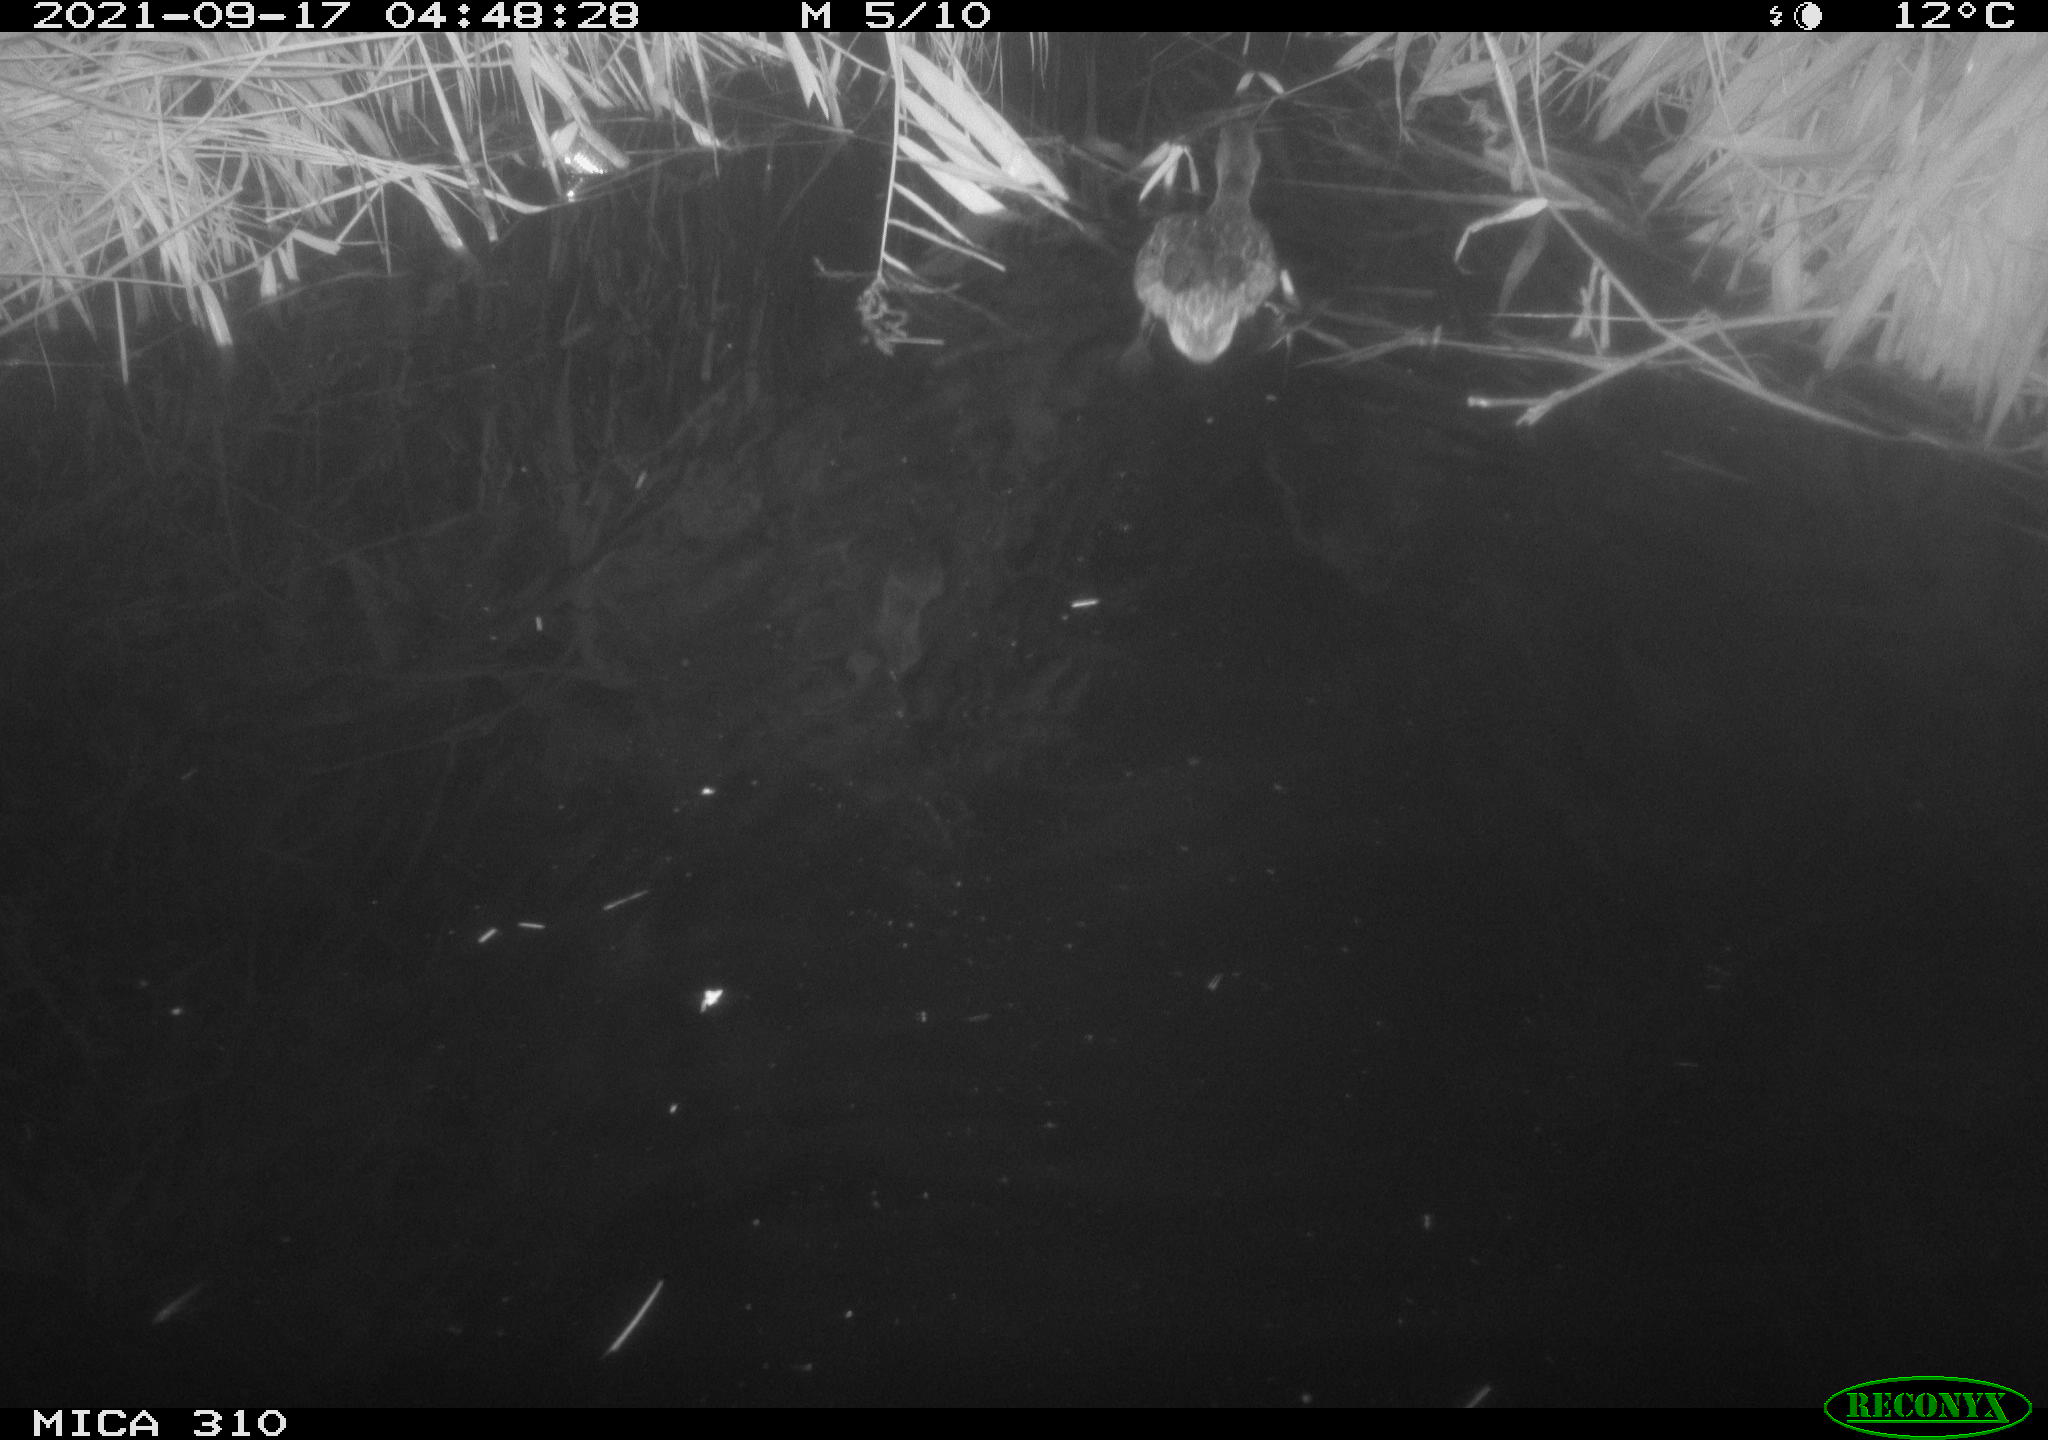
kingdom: Animalia
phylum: Chordata
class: Aves
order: Anseriformes
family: Anatidae
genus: Mareca
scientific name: Mareca strepera
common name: Gadwall
